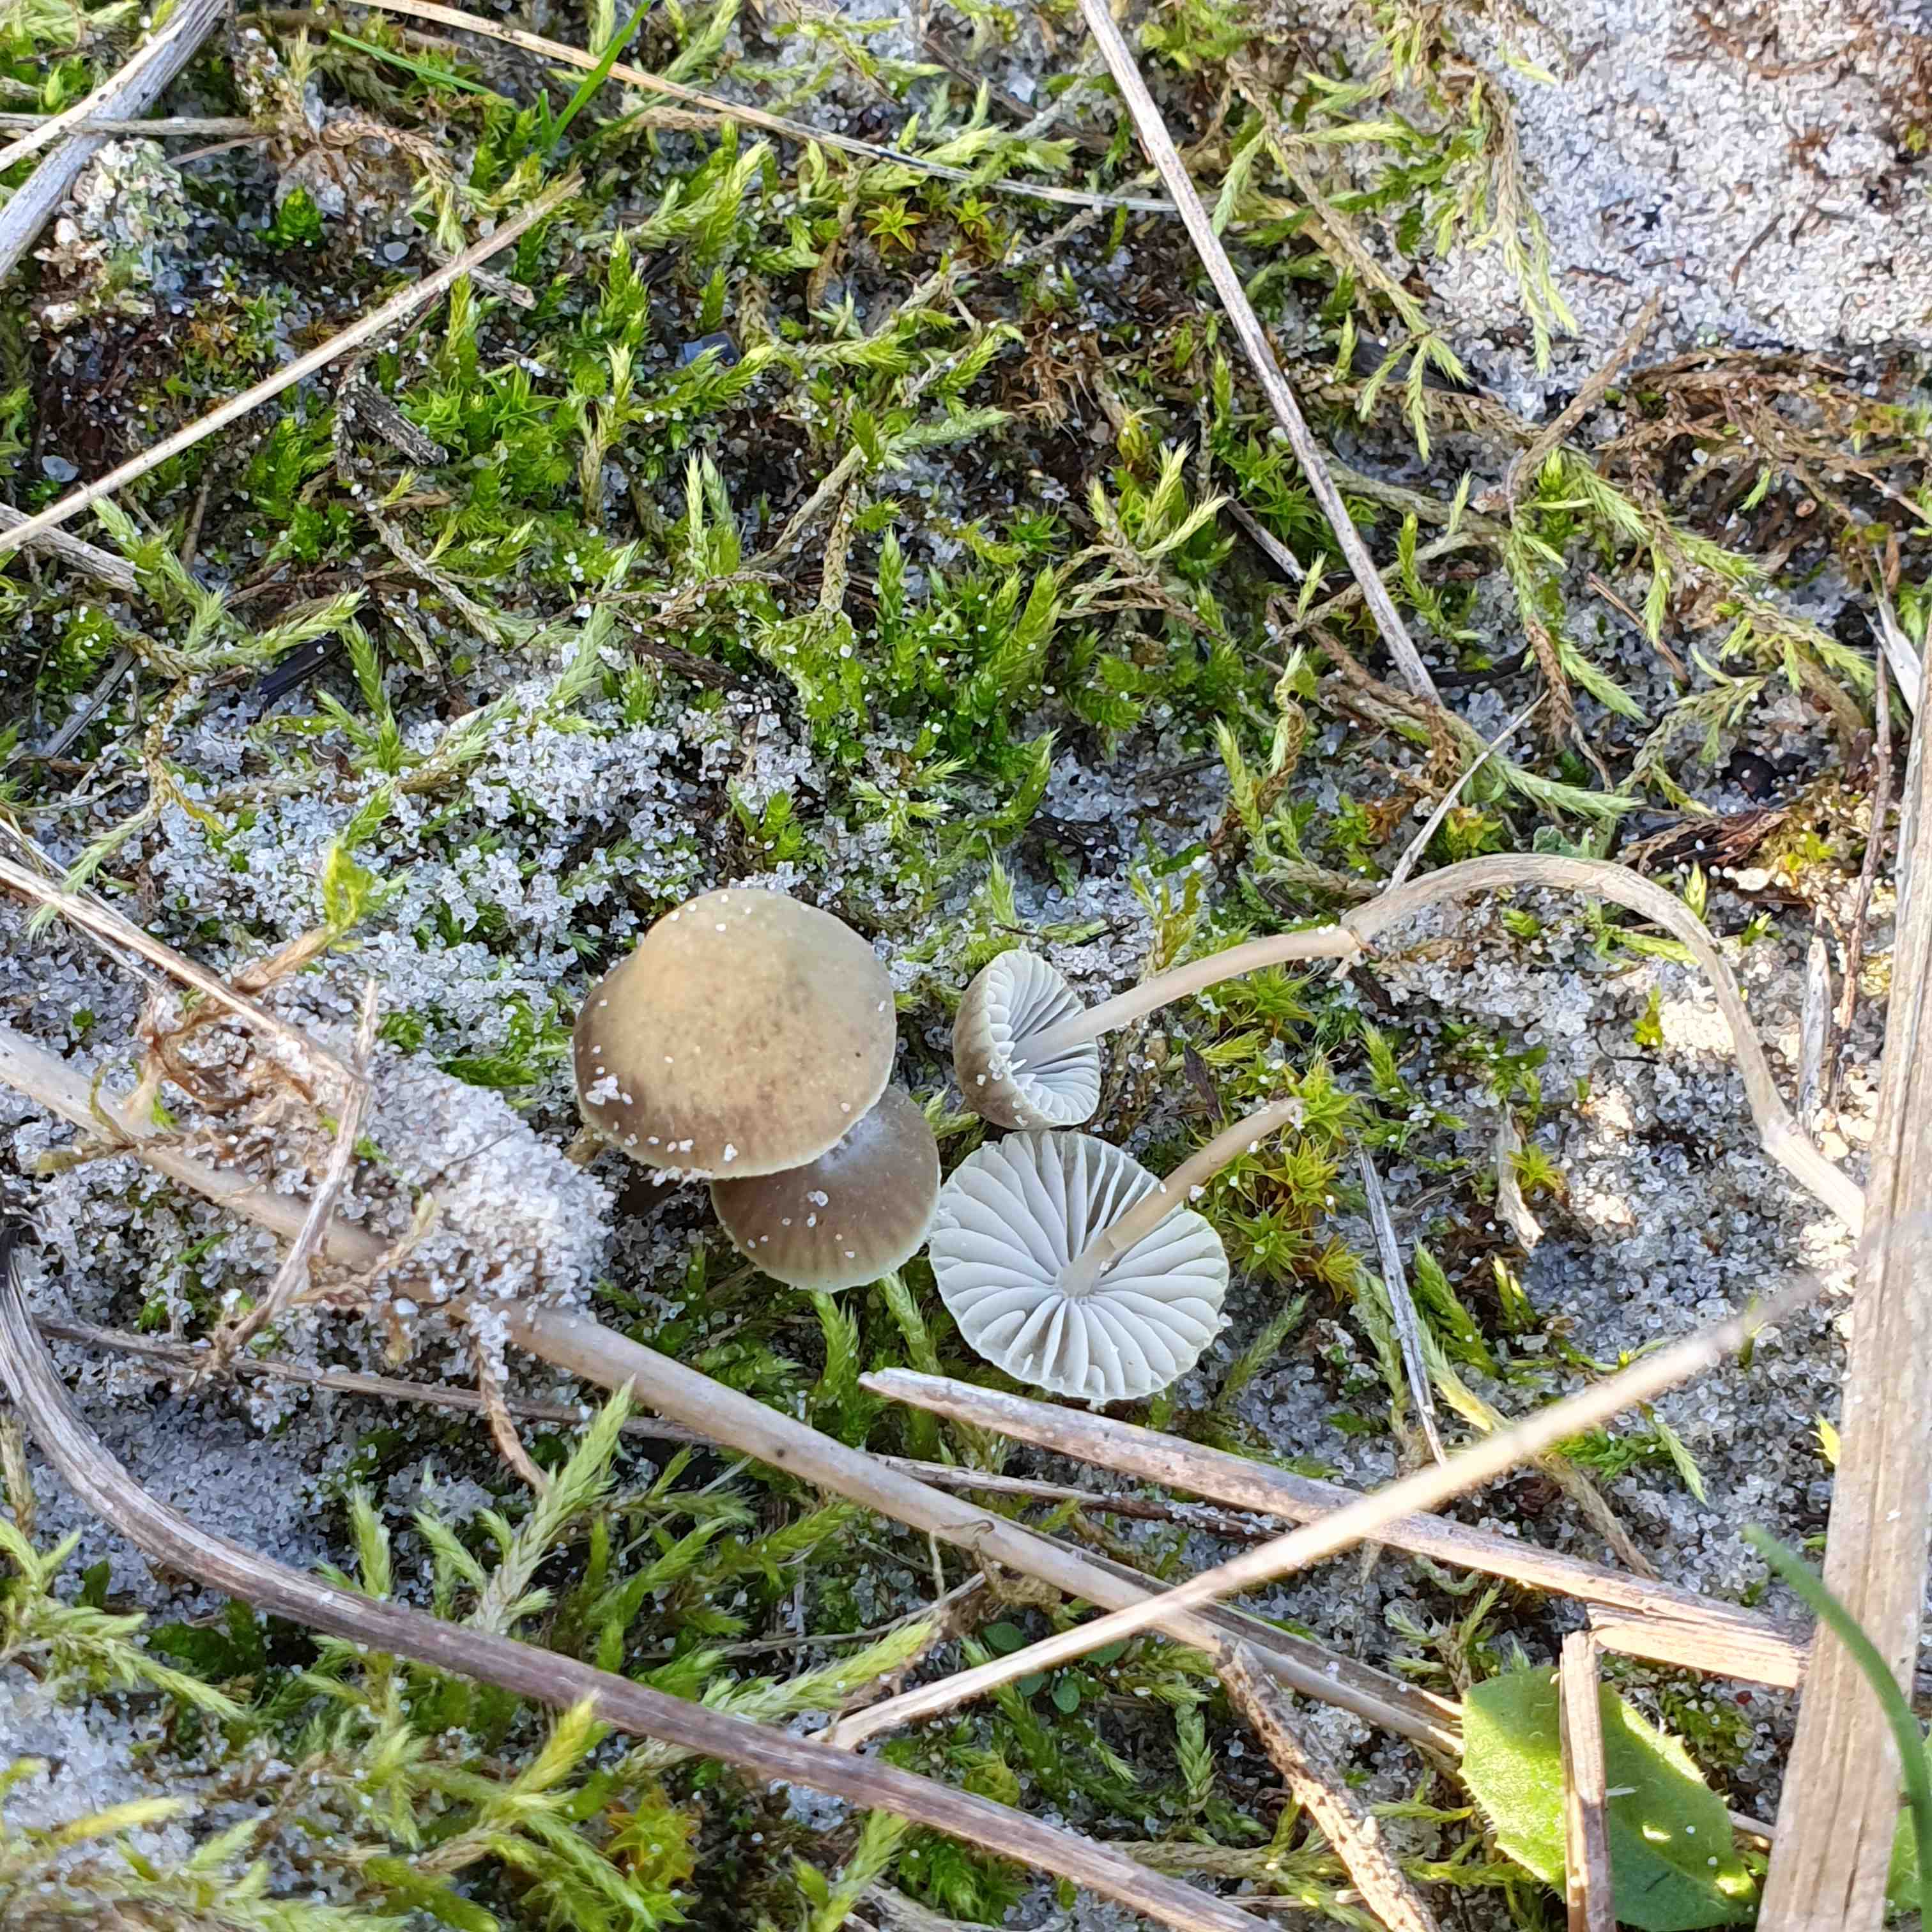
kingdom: Fungi
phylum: Basidiomycota
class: Agaricomycetes
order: Agaricales
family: Mycenaceae
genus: Mycena
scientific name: Mycena chlorantha
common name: klit-huesvamp
